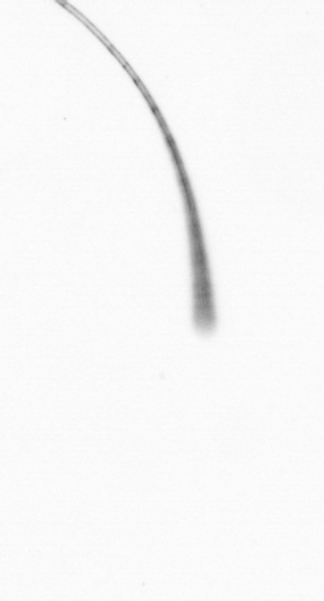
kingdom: Chromista
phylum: Ochrophyta
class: Bacillariophyceae
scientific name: Bacillariophyceae
